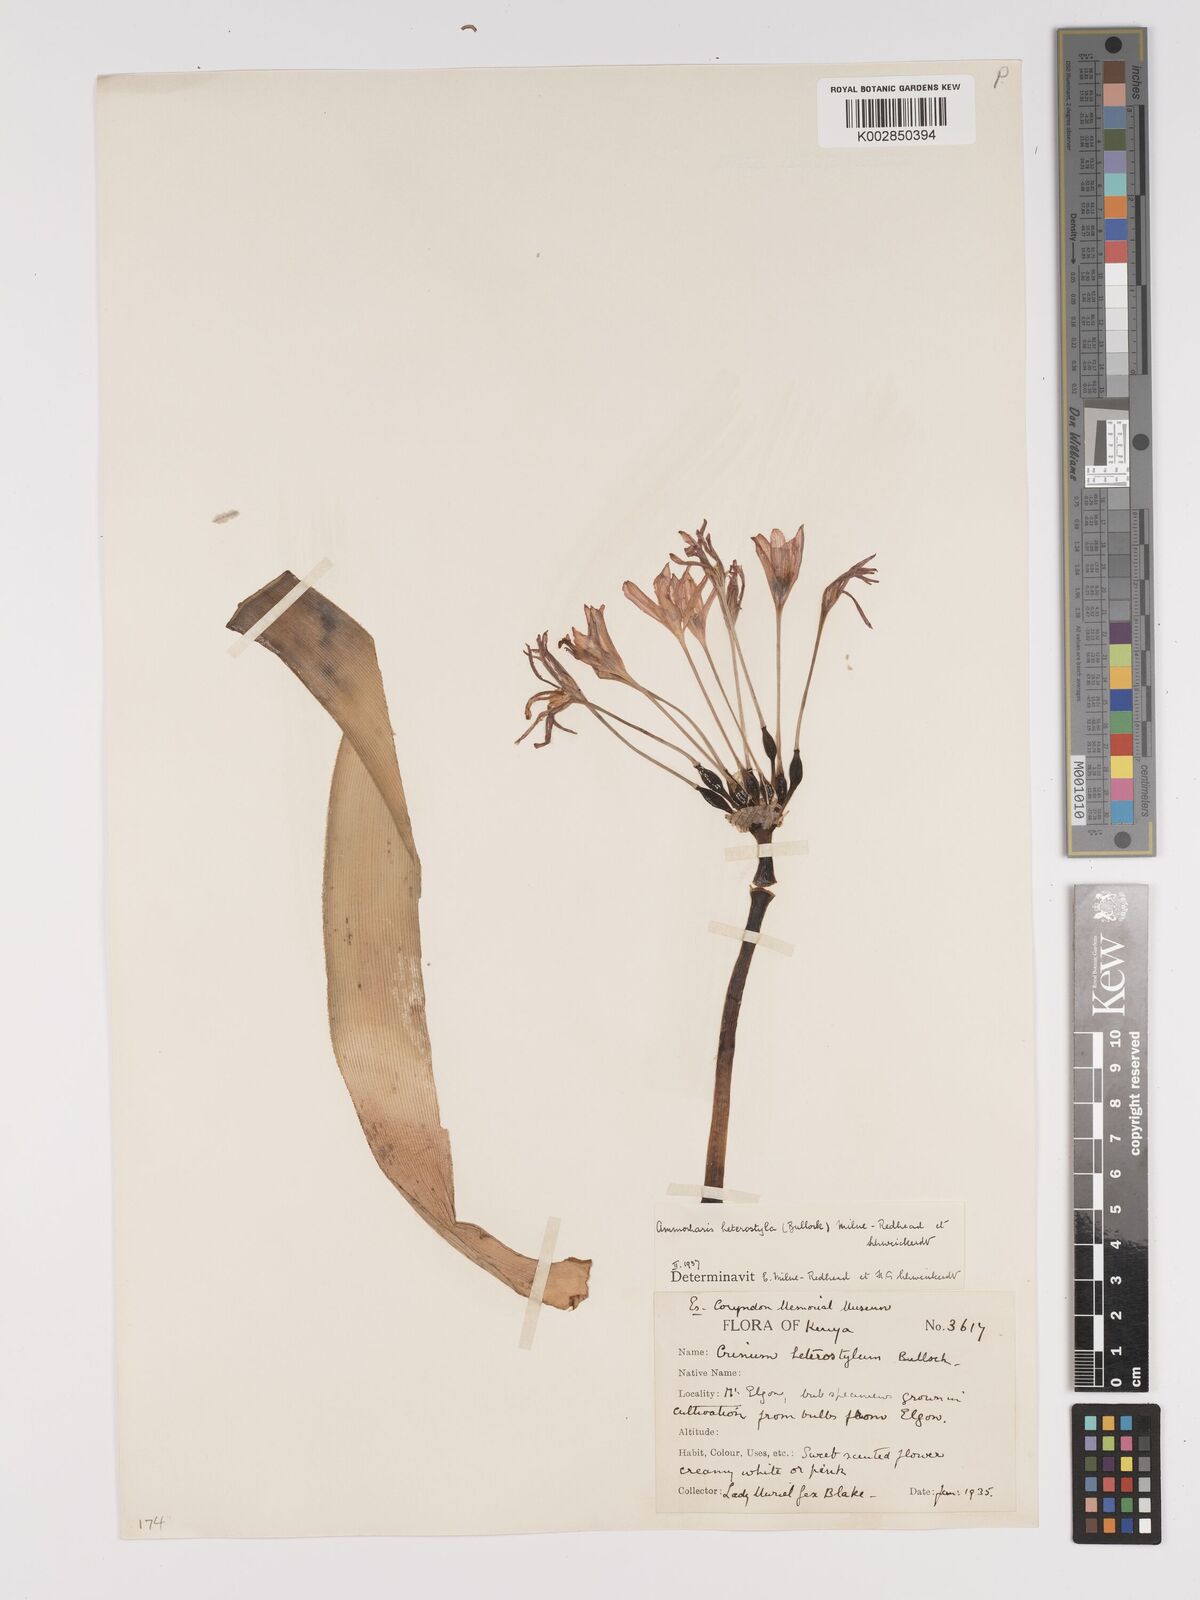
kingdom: Plantae
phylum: Tracheophyta
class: Liliopsida
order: Asparagales
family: Amaryllidaceae
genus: Ammocharis
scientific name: Ammocharis angolensis
